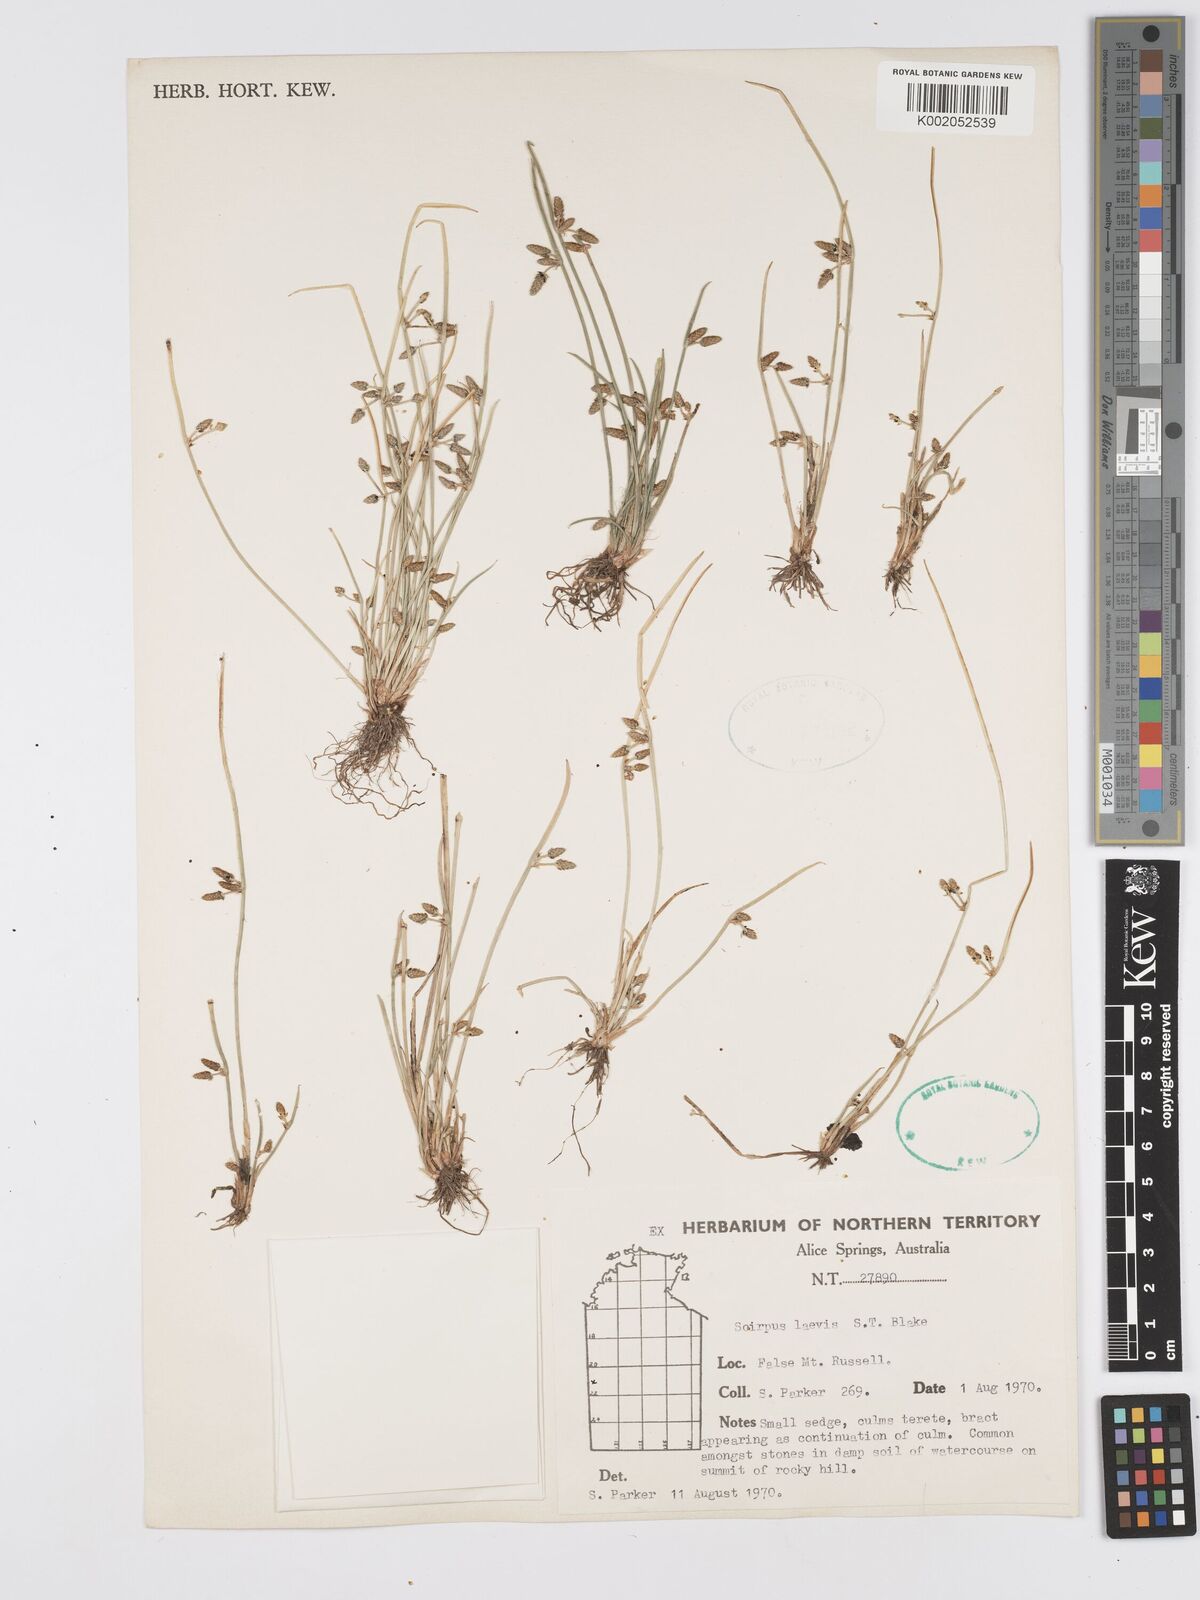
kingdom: Plantae
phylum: Tracheophyta
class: Liliopsida
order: Poales
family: Cyperaceae
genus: Schoenoplectiella
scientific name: Schoenoplectiella laevis
